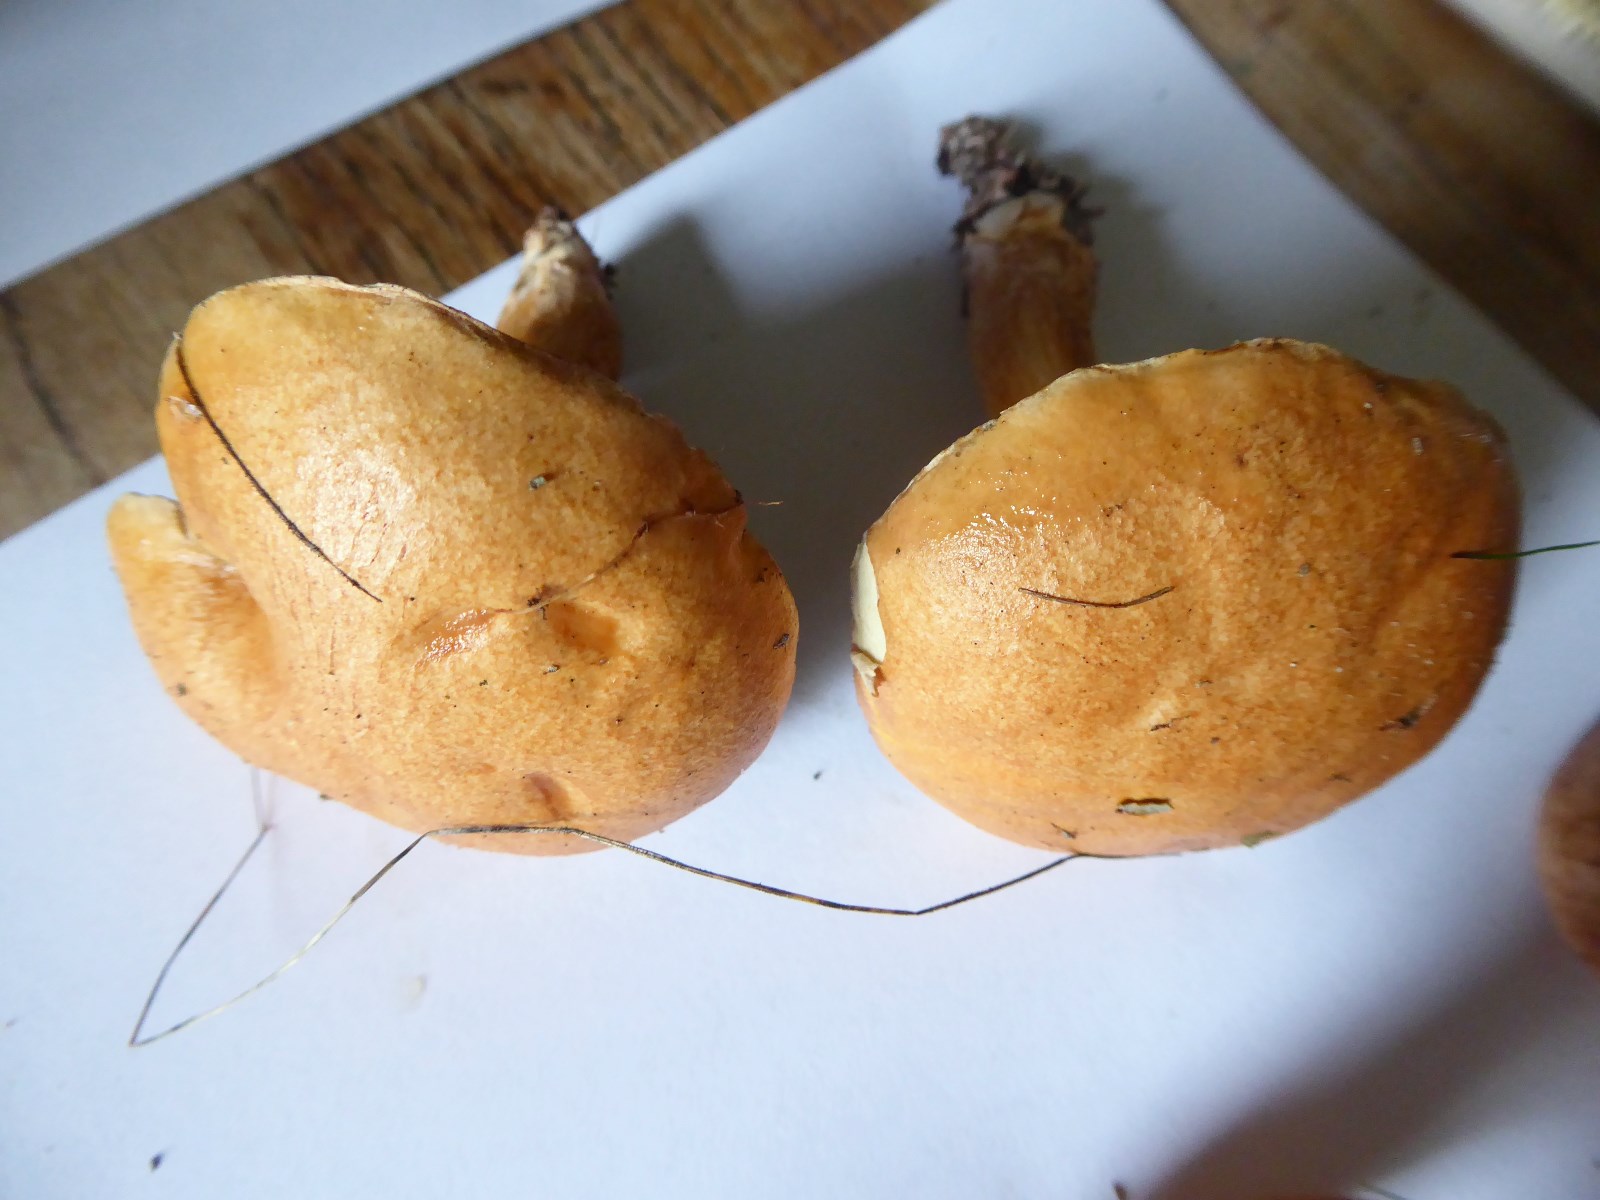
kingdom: Fungi
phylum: Basidiomycota
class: Agaricomycetes
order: Boletales
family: Suillaceae
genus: Suillus
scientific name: Suillus bovinus
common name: grovporet slimrørhat
